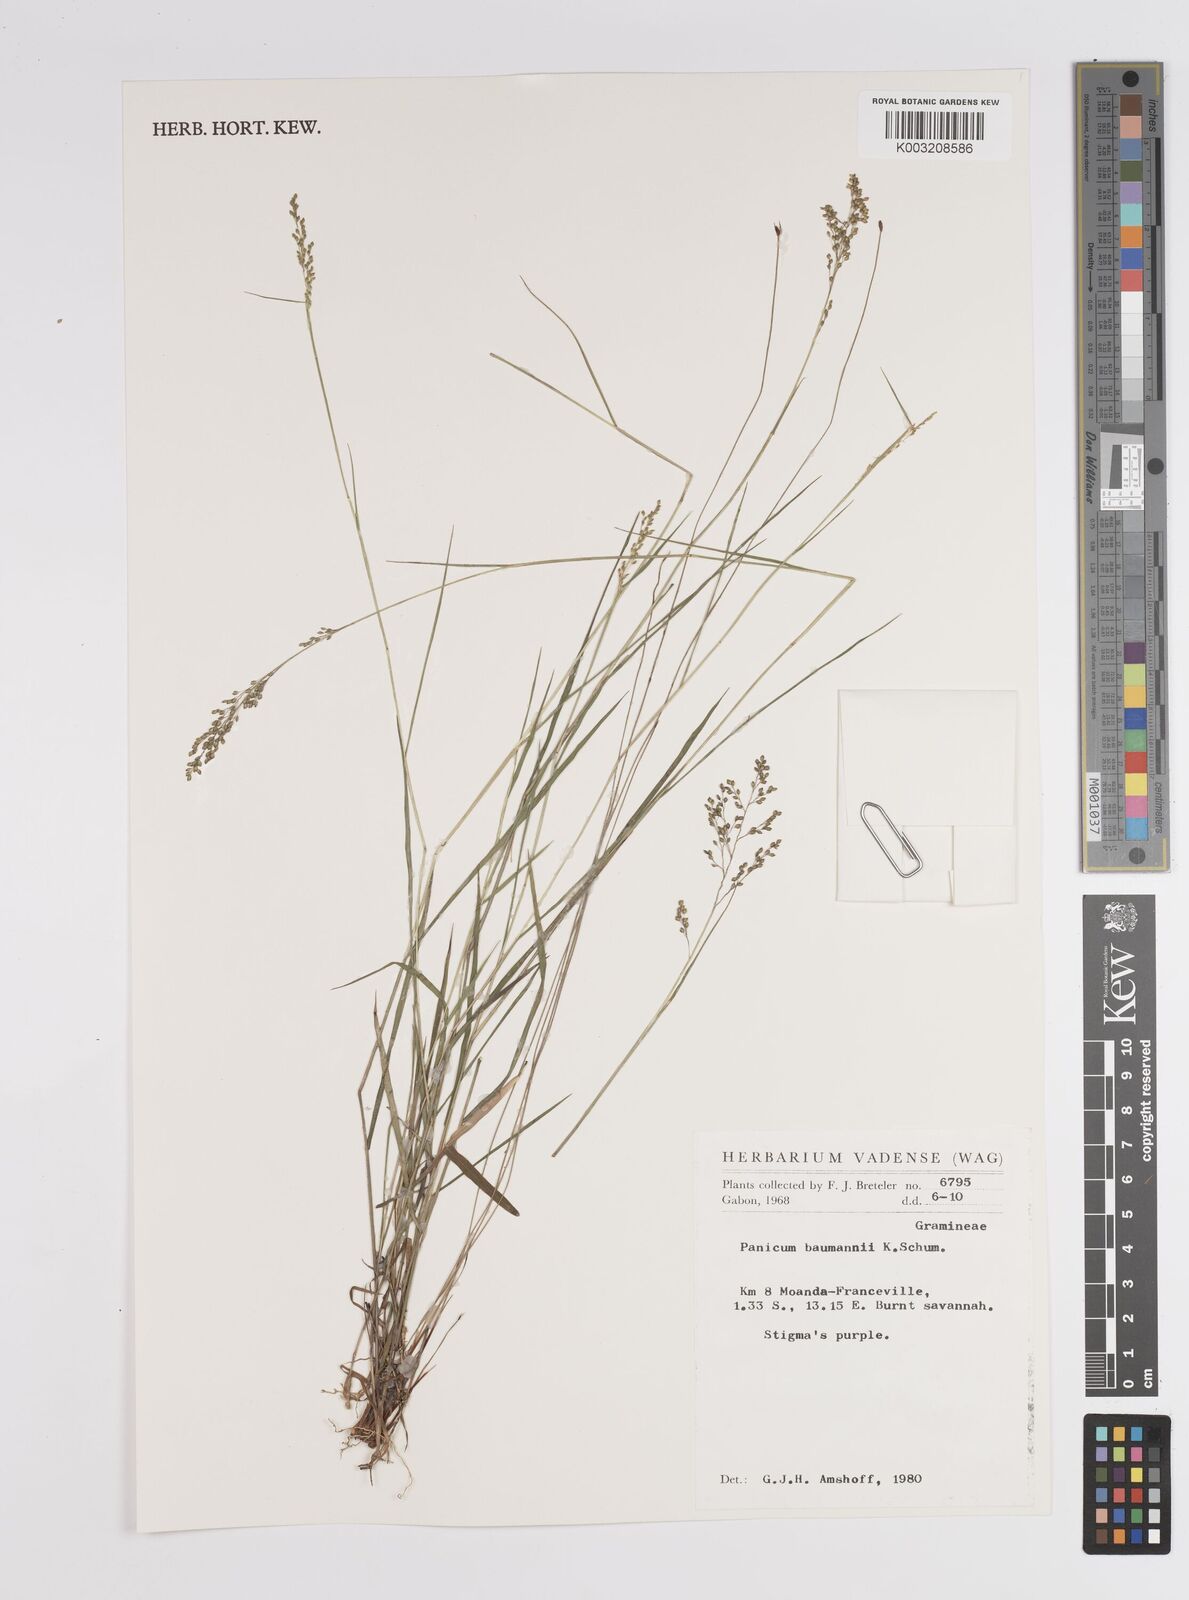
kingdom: Plantae
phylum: Tracheophyta
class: Liliopsida
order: Poales
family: Poaceae
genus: Trichanthecium
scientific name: Trichanthecium nervatum
